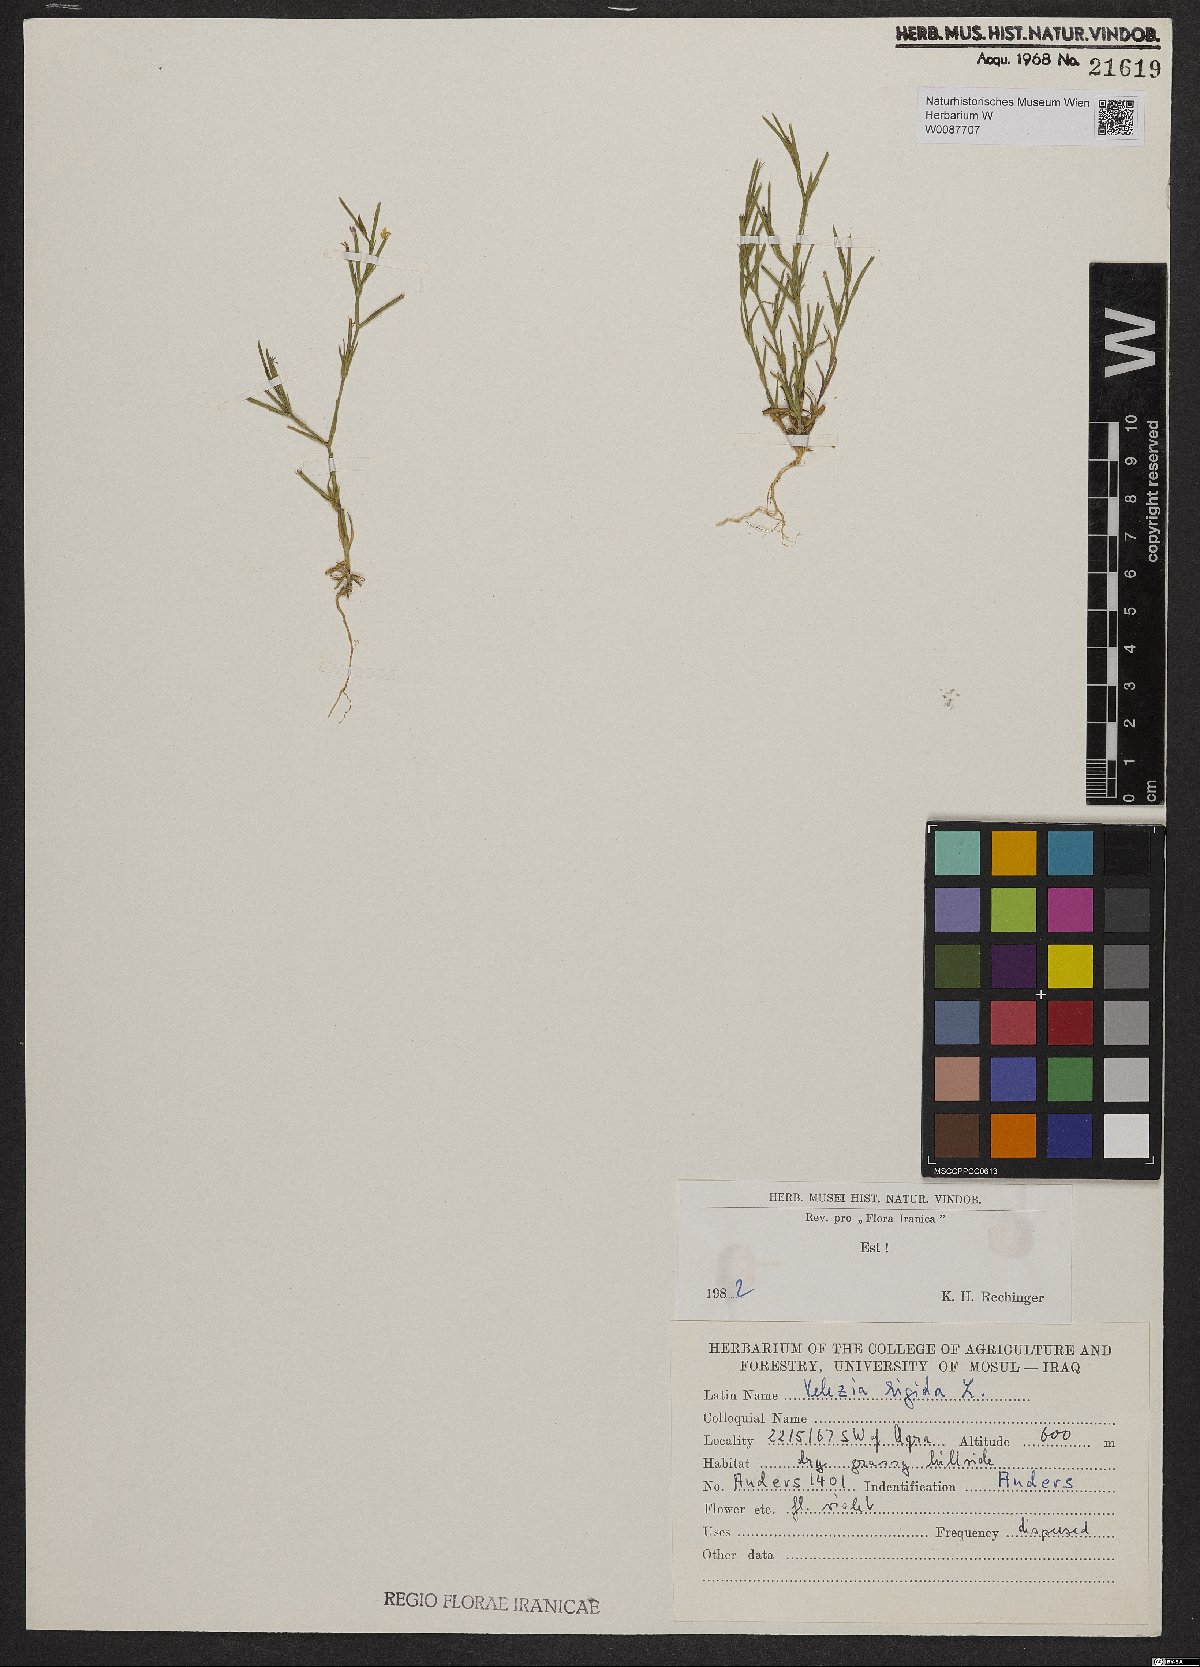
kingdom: Plantae
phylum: Tracheophyta
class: Magnoliopsida
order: Caryophyllales
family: Caryophyllaceae
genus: Dianthus
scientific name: Dianthus nudiflorus
